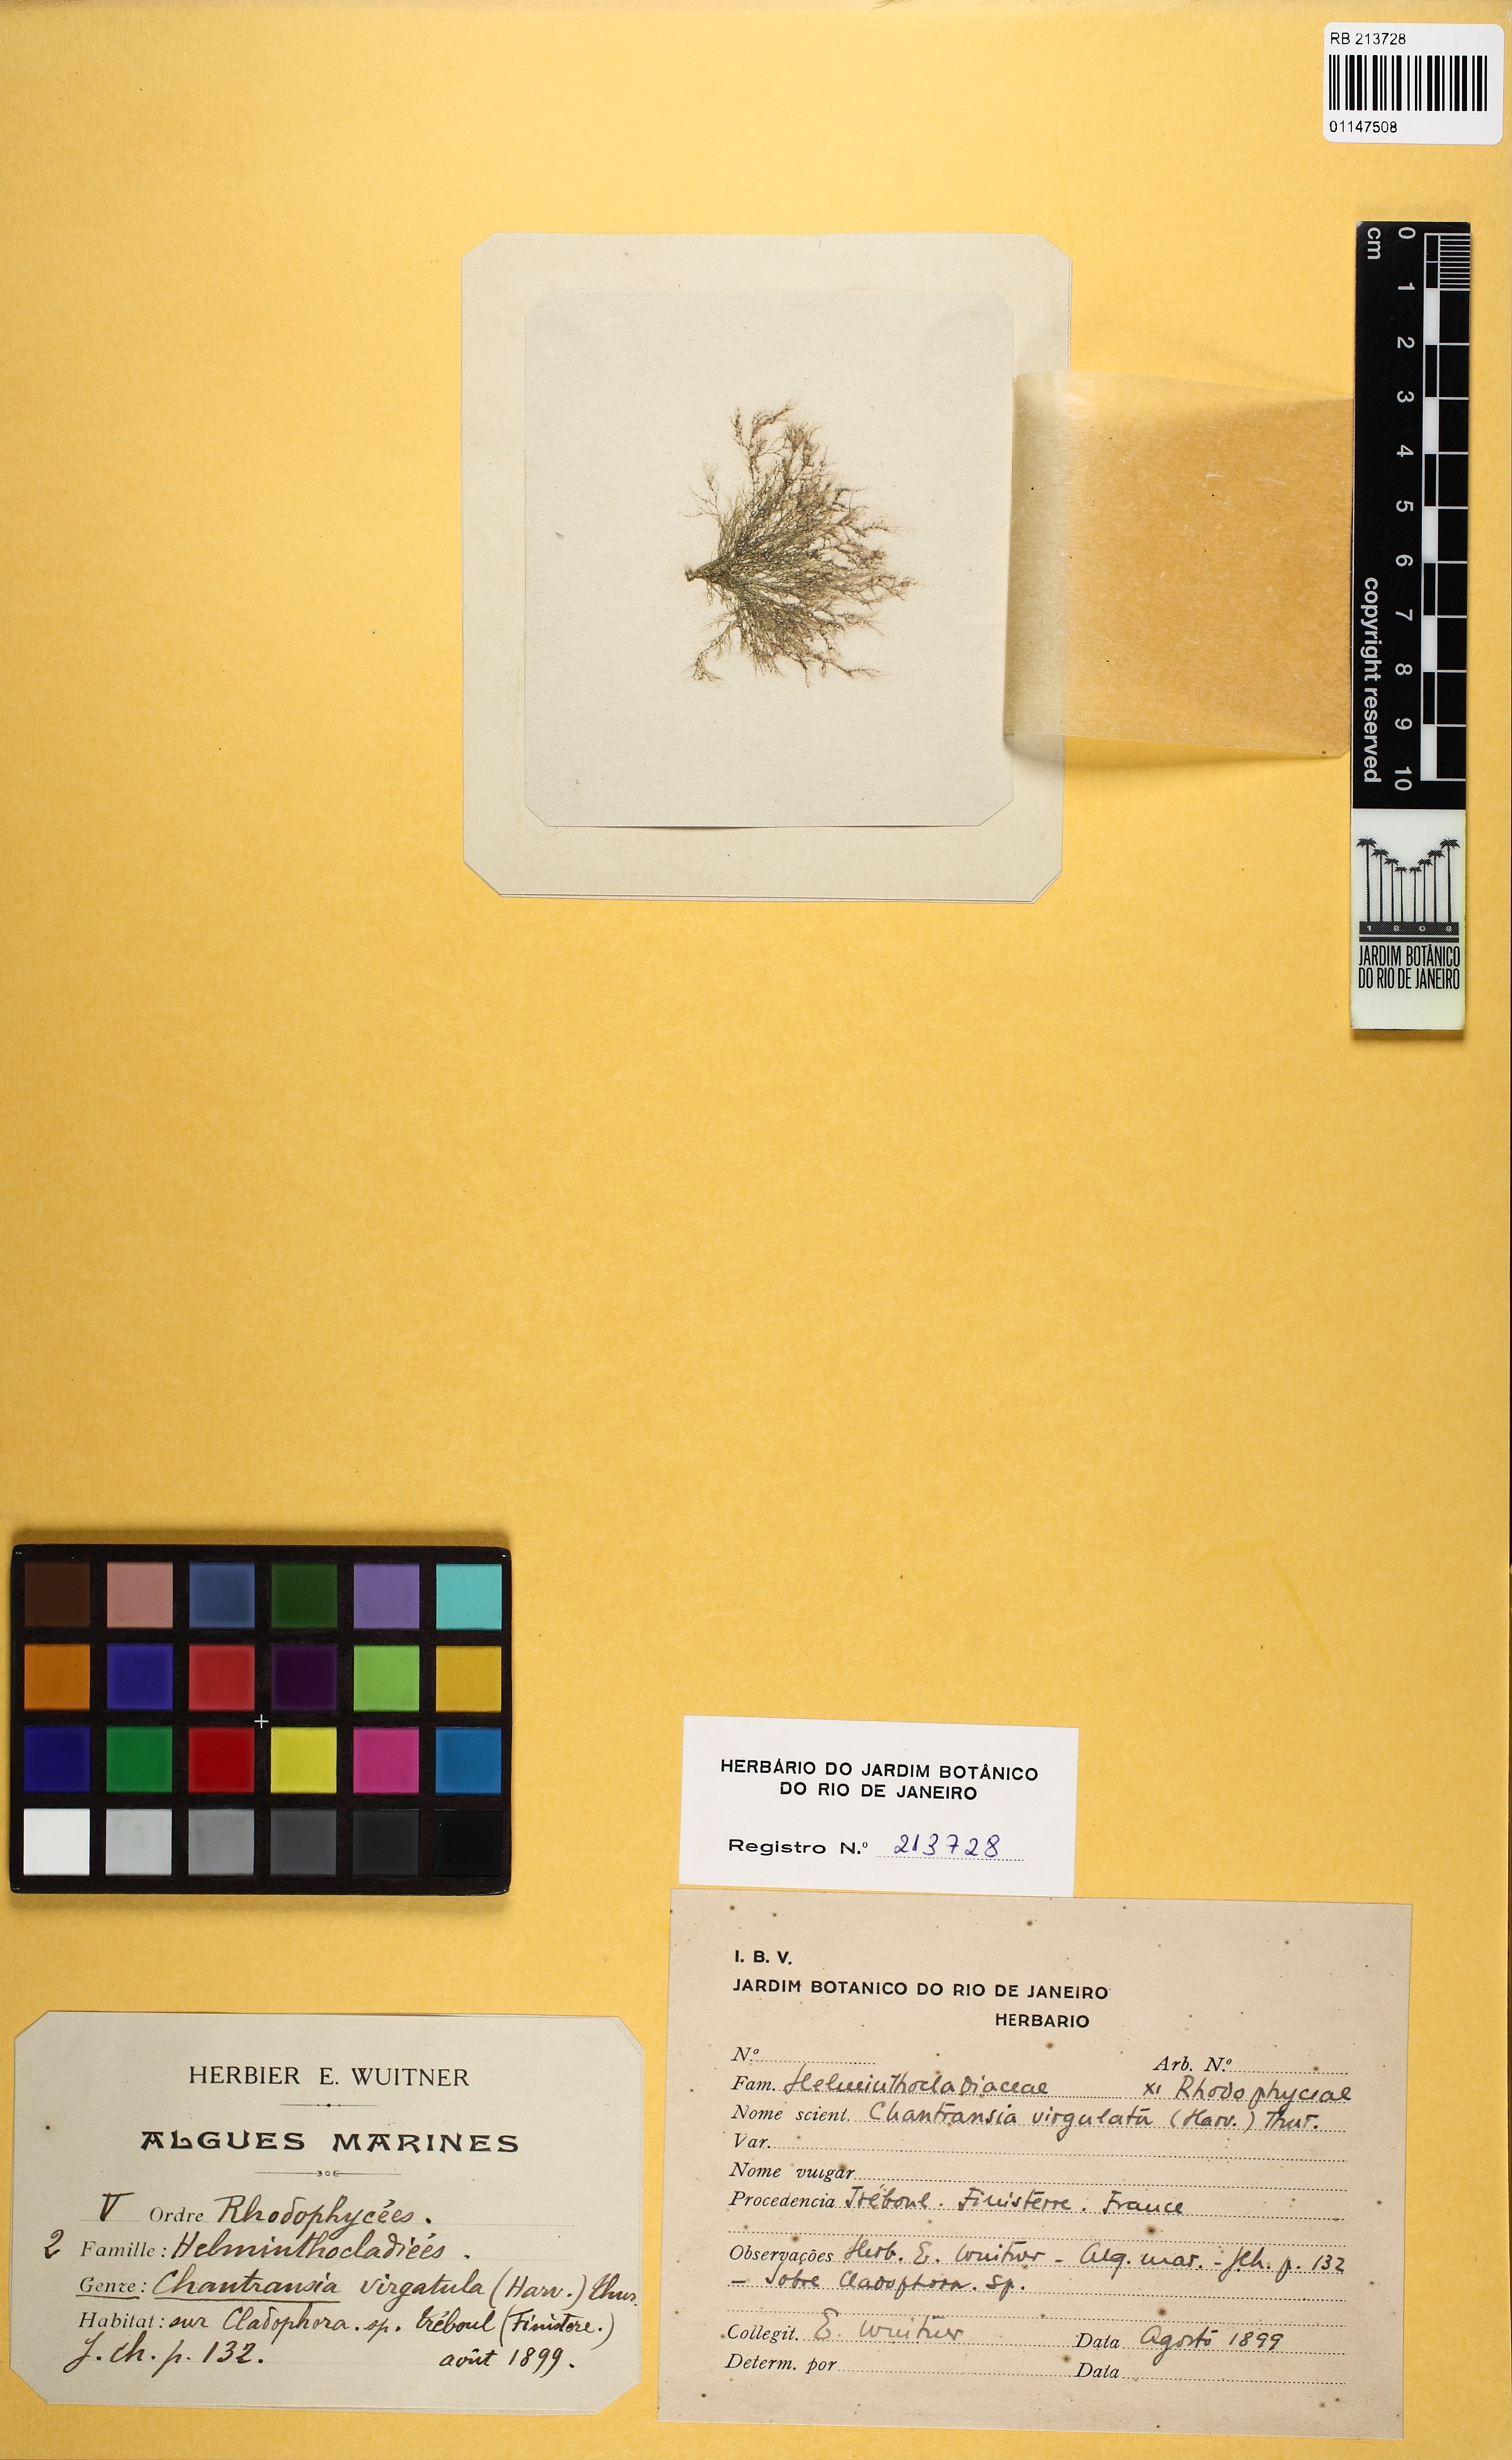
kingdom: Plantae
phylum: Rhodophyta
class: Florideophyceae
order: Batrachospermales
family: Lemaneaceae
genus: Lemanea
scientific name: Lemanea
